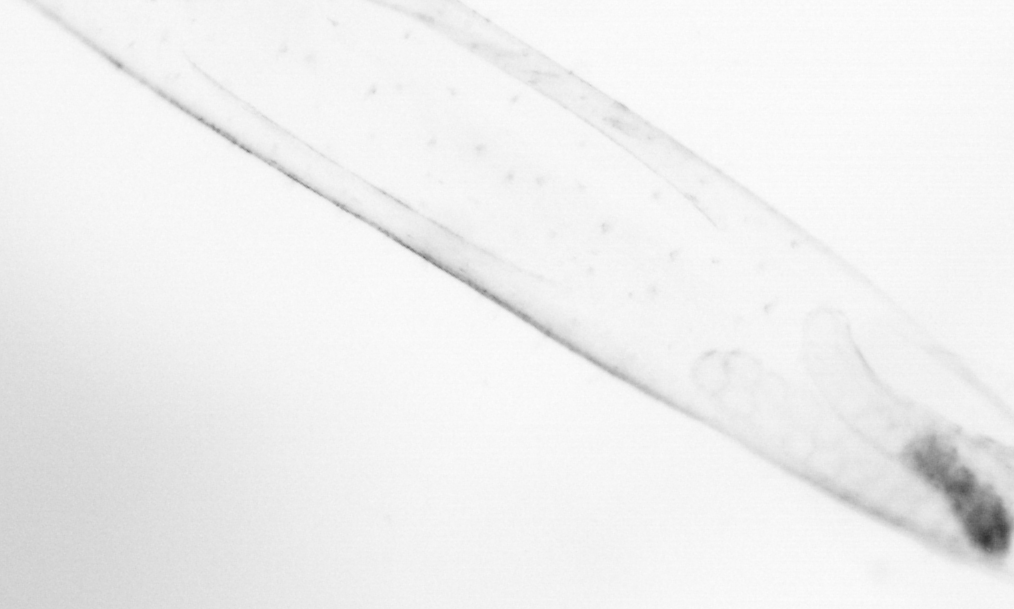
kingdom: Animalia
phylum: Chaetognatha
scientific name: Chaetognatha
